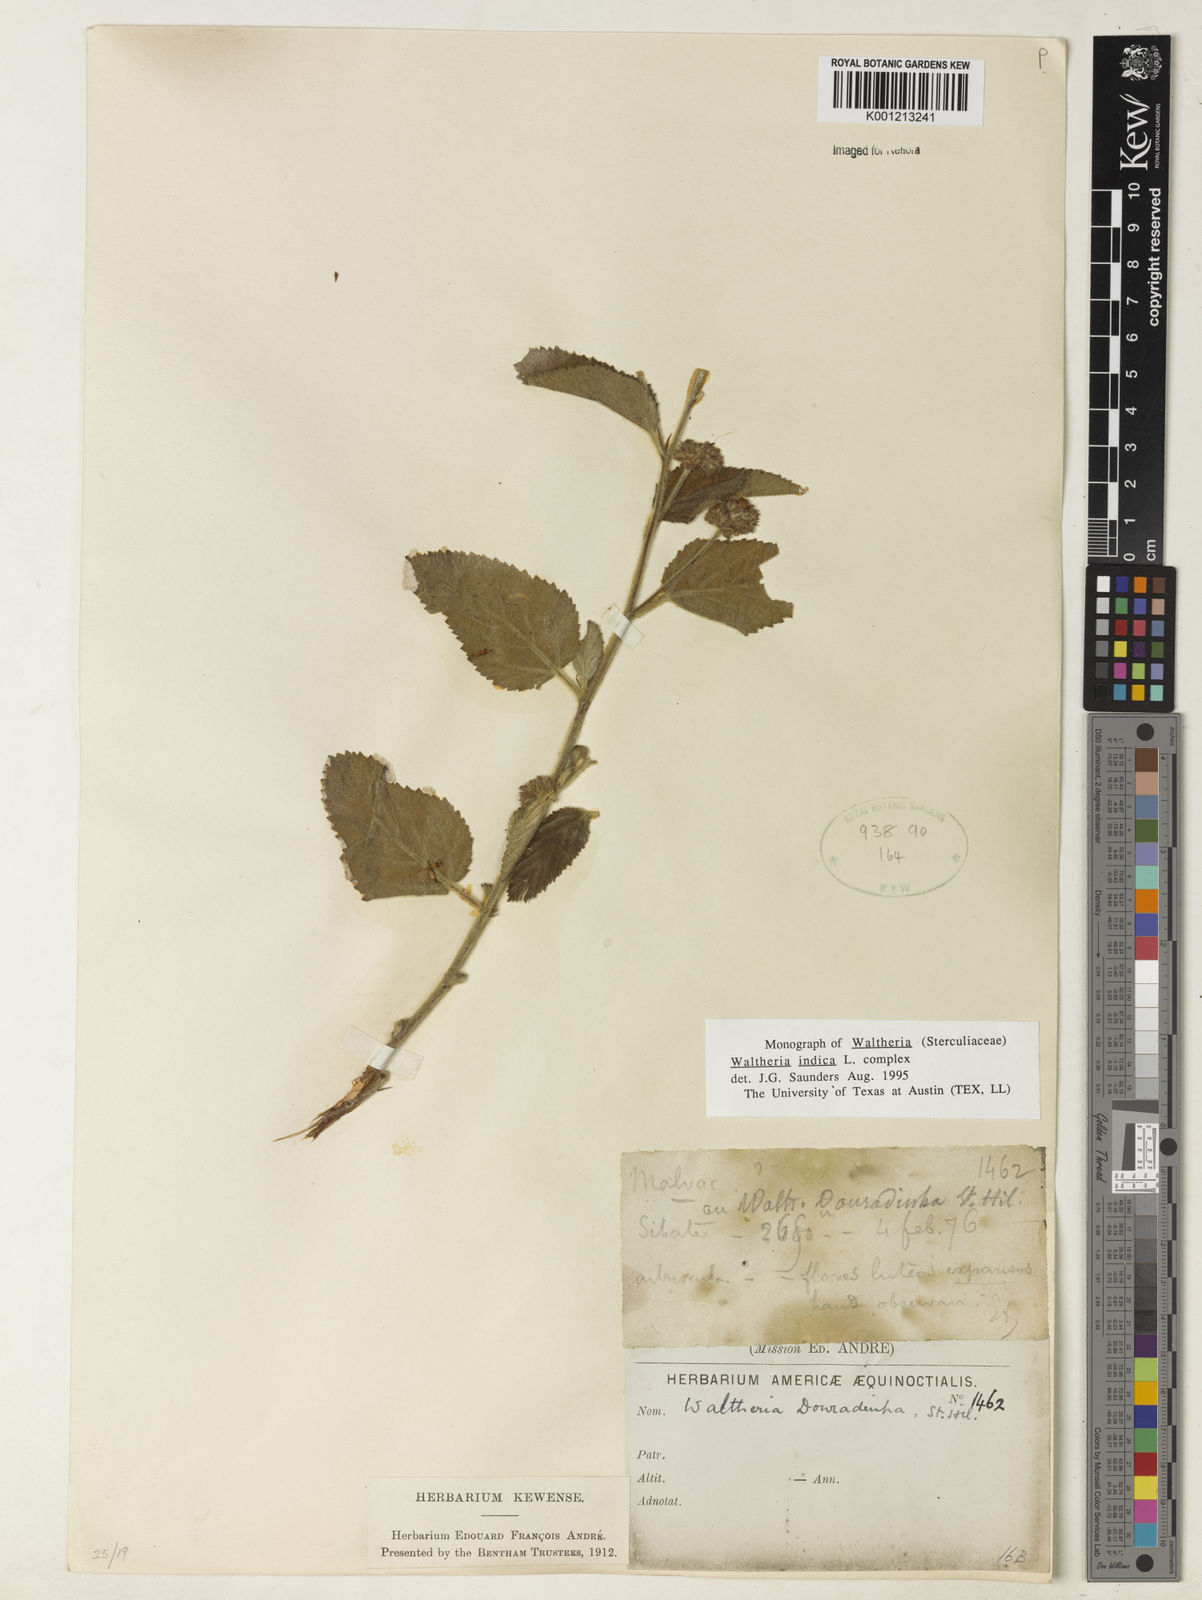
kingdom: Plantae
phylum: Tracheophyta
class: Magnoliopsida
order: Malvales
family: Malvaceae
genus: Waltheria
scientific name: Waltheria indica
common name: Leather-coat
